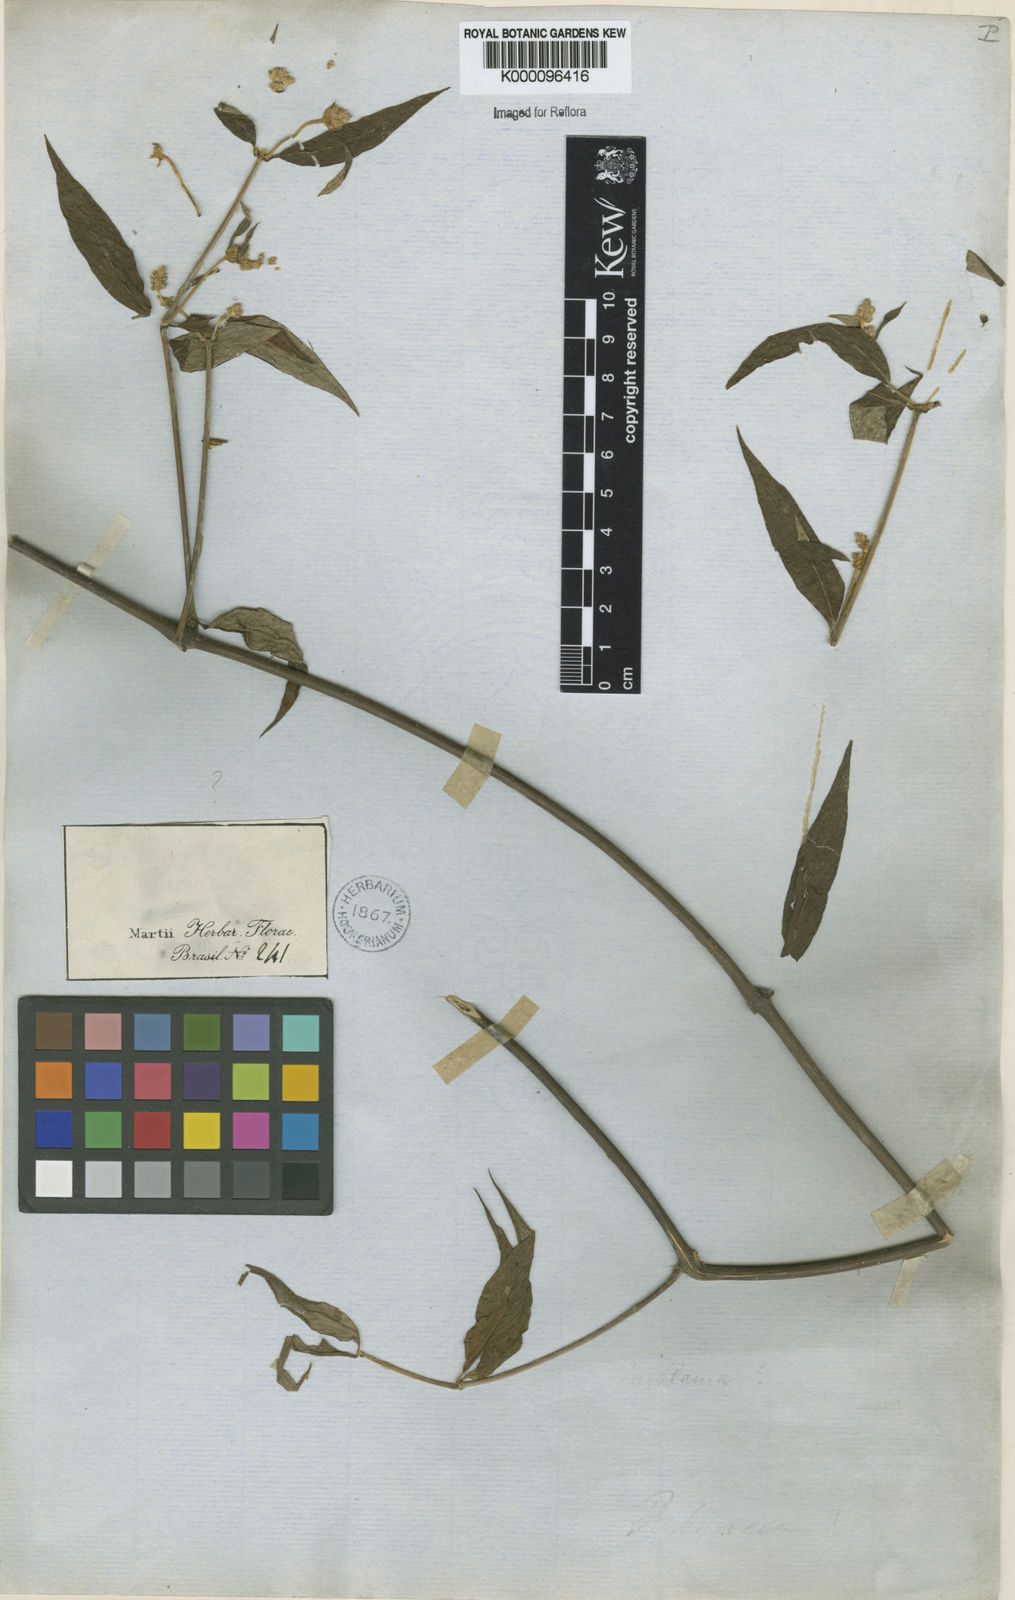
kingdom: Plantae
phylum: Tracheophyta
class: Magnoliopsida
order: Gentianales
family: Apocynaceae
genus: Funastrum
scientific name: Funastrum clausum
